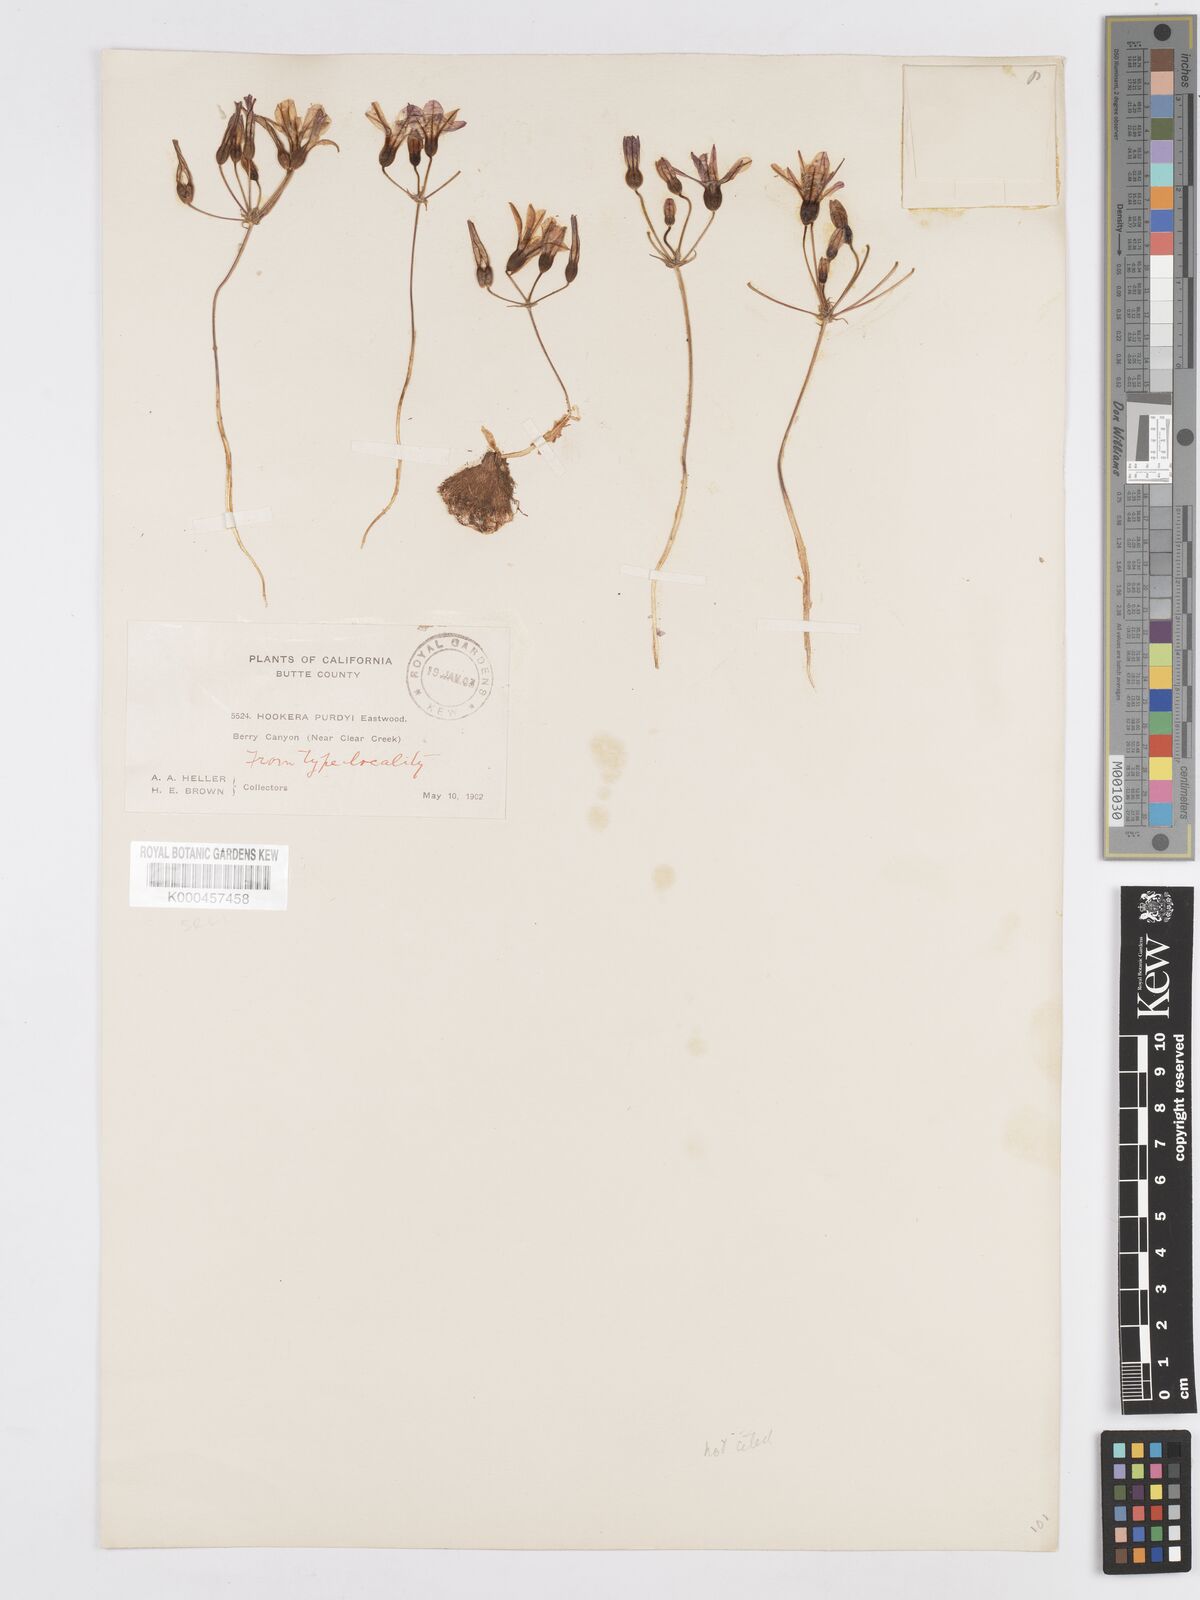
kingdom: Plantae
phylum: Tracheophyta
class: Liliopsida
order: Asparagales
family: Asparagaceae
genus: Brodiaea
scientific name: Brodiaea minor
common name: Dwarf brodiaea
